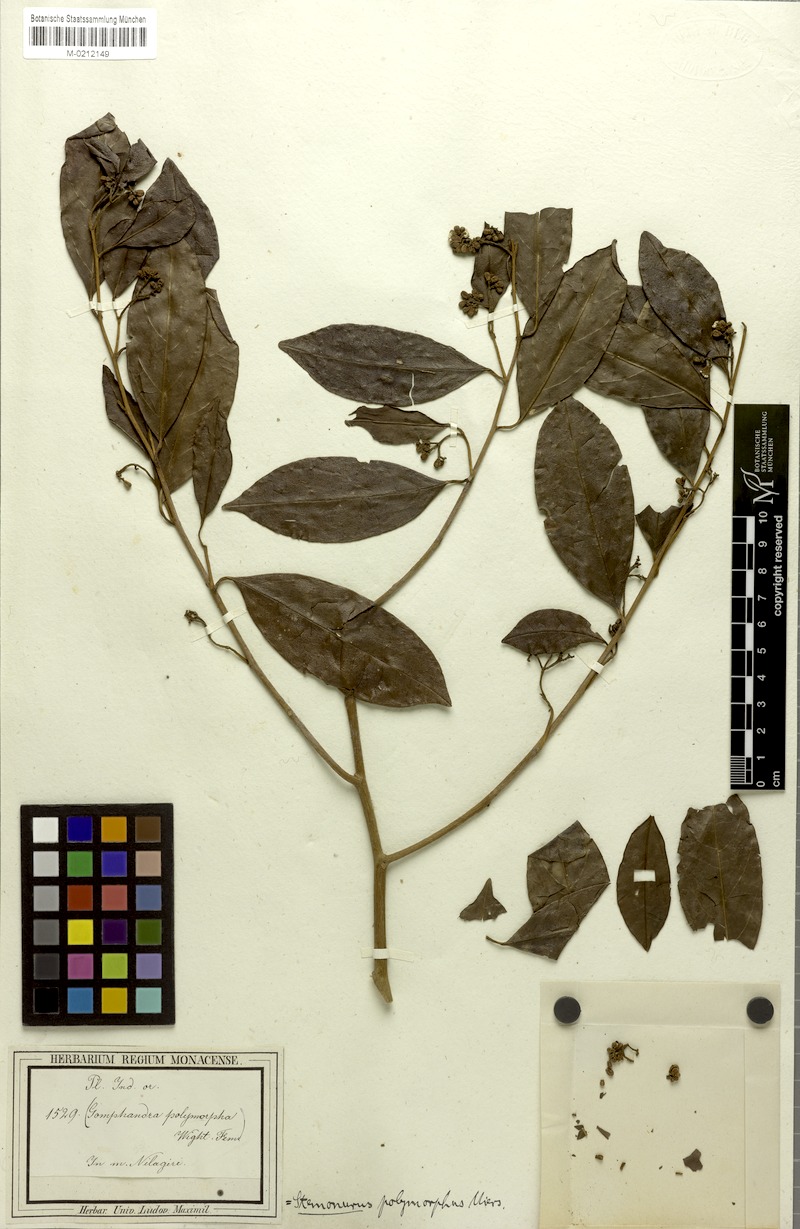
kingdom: Plantae
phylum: Tracheophyta
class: Magnoliopsida
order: Cardiopteridales
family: Stemonuraceae
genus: Gomphandra
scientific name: Gomphandra tetrandra
